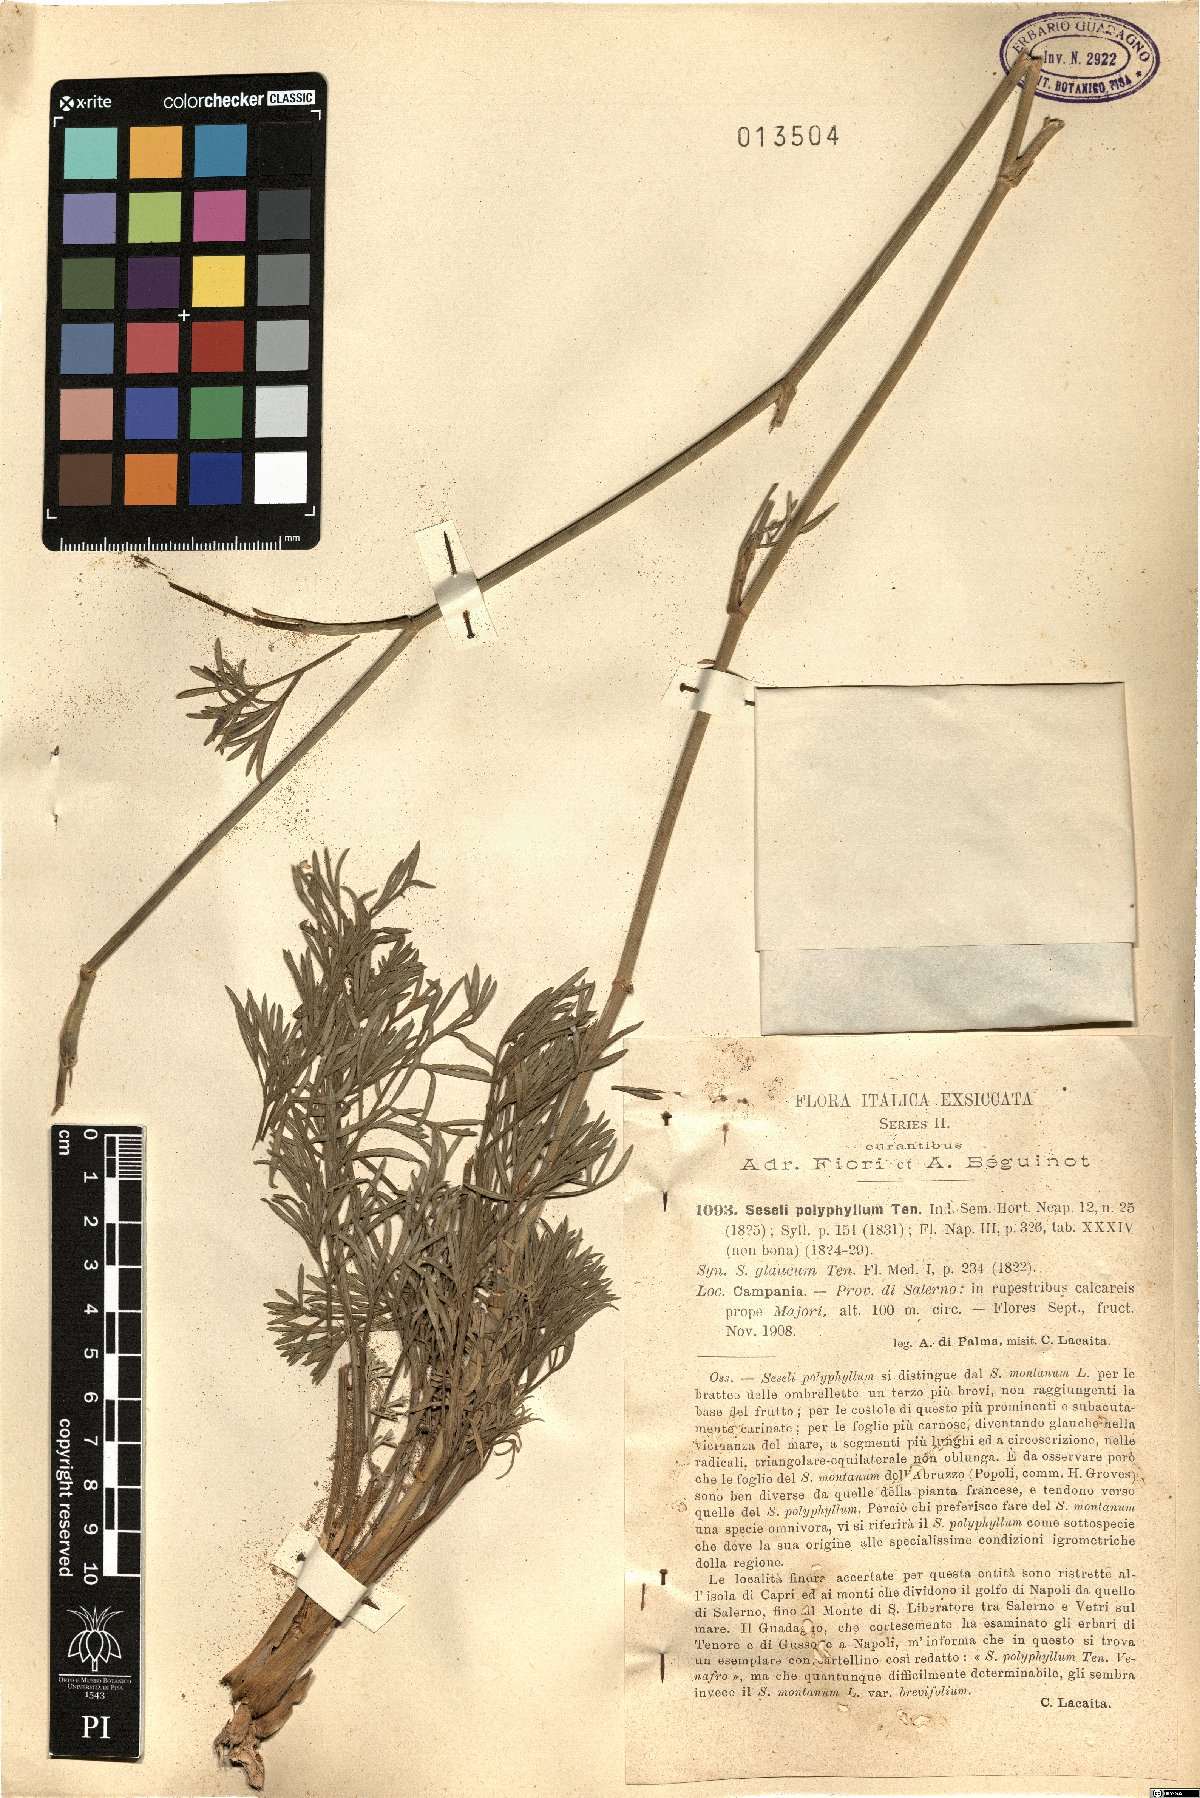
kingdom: Plantae
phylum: Tracheophyta
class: Magnoliopsida
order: Apiales
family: Apiaceae
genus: Seseli
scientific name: Seseli polyphyllum
